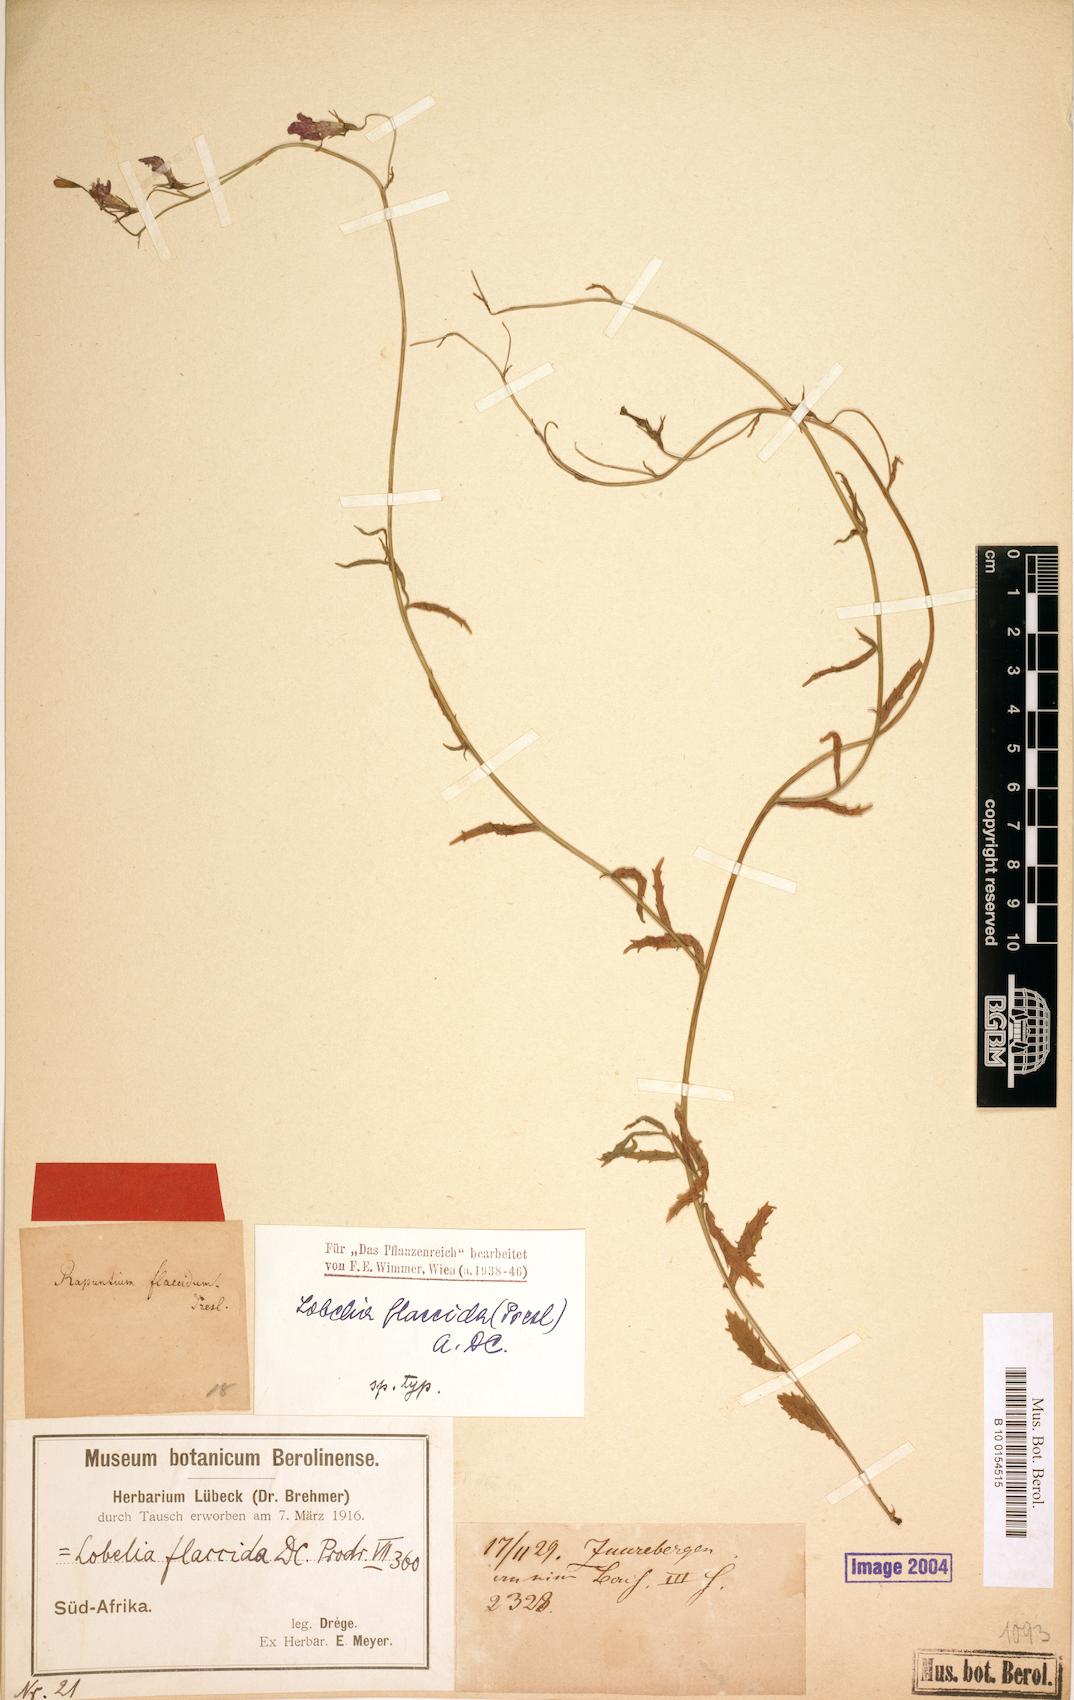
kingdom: Plantae
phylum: Tracheophyta
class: Magnoliopsida
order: Asterales
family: Campanulaceae
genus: Lobelia
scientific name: Lobelia flaccida
